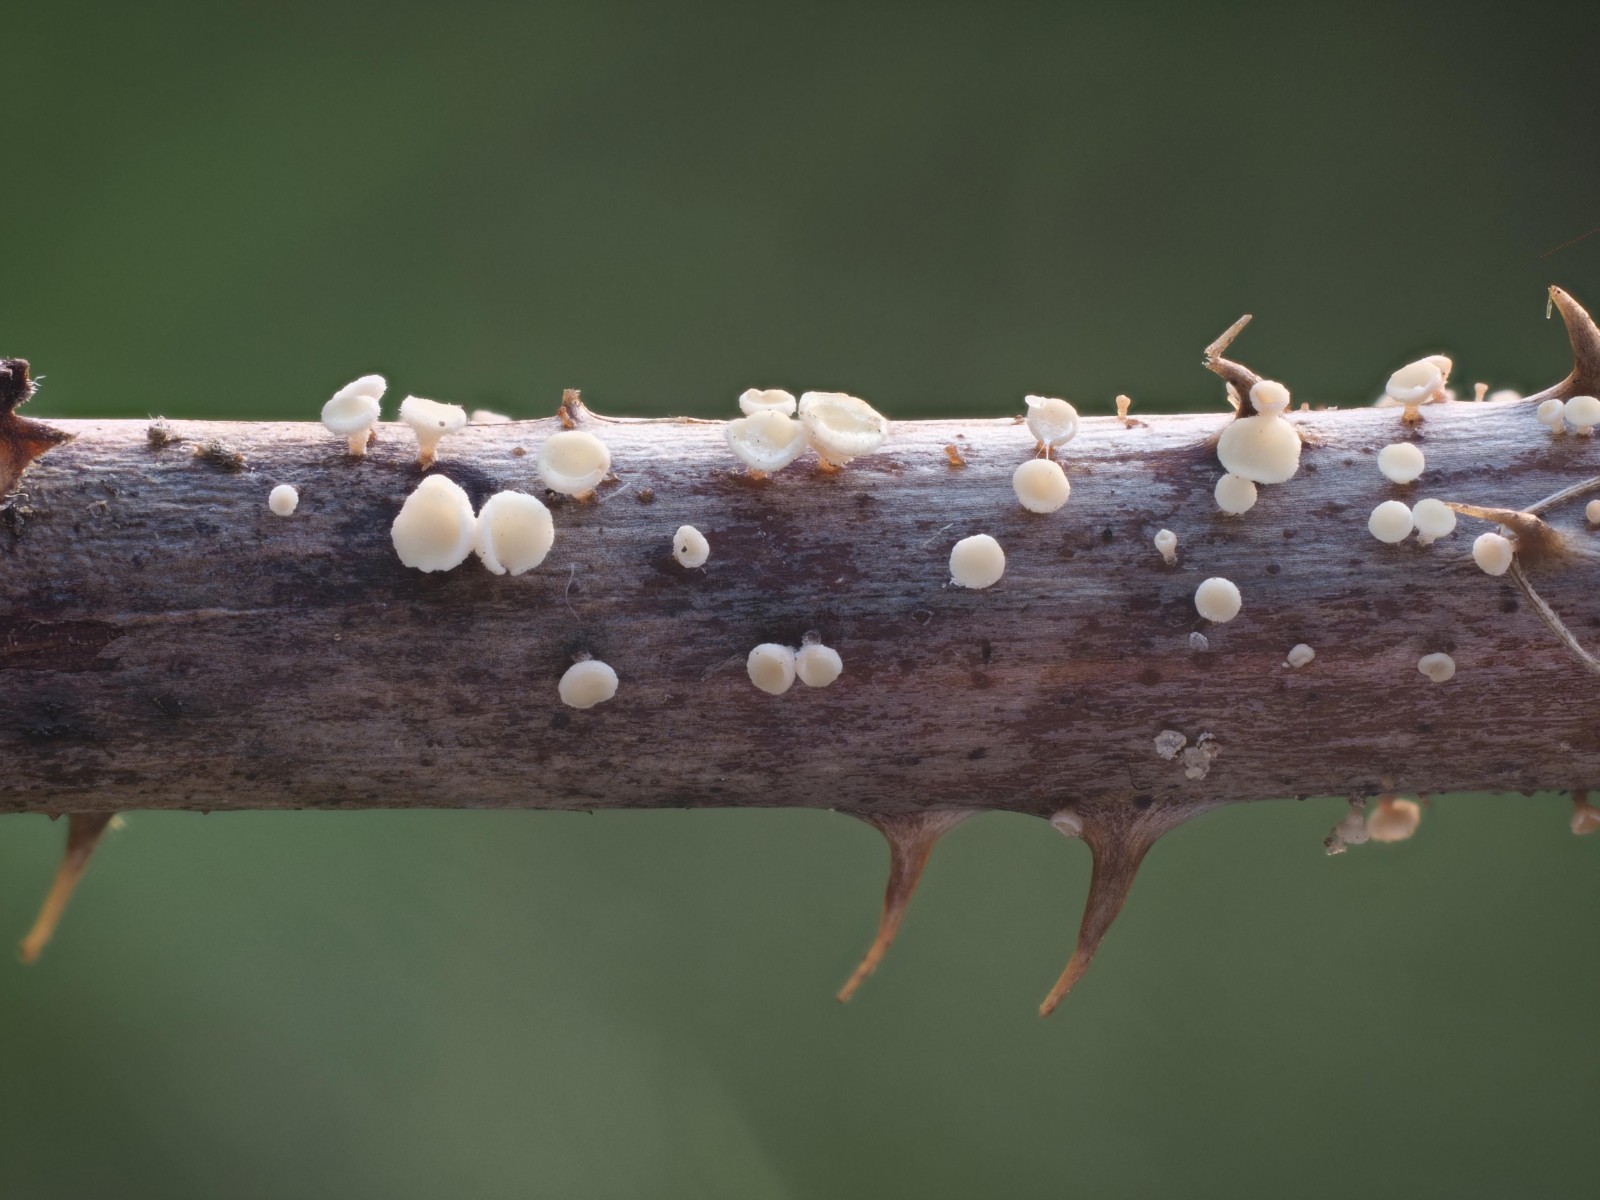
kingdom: Fungi
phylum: Ascomycota
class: Leotiomycetes
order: Helotiales
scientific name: Helotiales
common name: stilkskiveordenen
